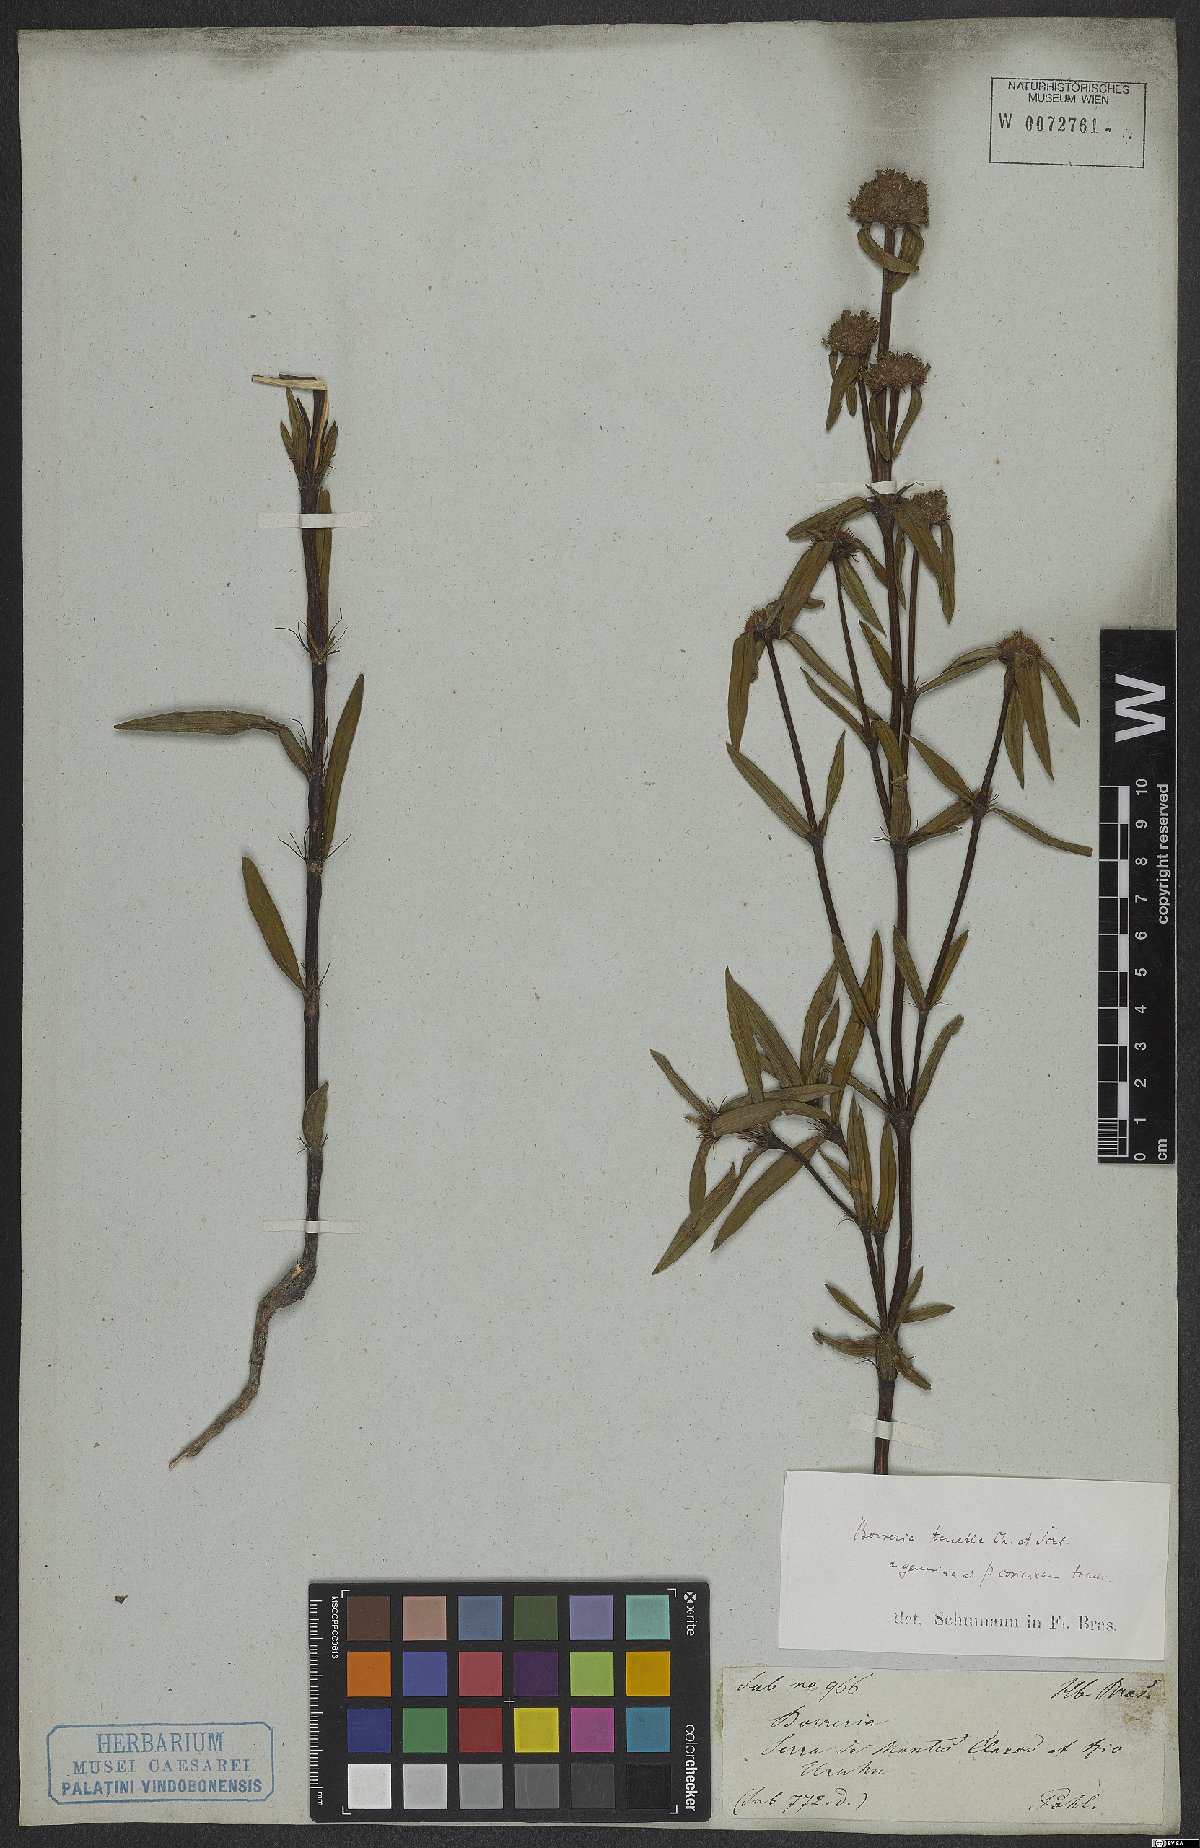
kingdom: Plantae
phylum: Tracheophyta
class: Magnoliopsida
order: Gentianales
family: Rubiaceae
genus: Spermacoce
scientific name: Spermacoce orinocensis
